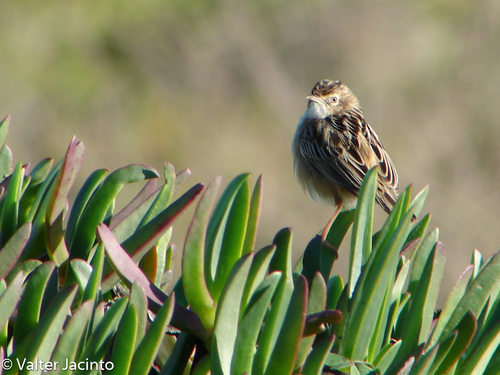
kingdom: Animalia
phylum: Chordata
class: Aves
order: Passeriformes
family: Cisticolidae
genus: Cisticola
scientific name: Cisticola juncidis
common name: Zitting cisticola
